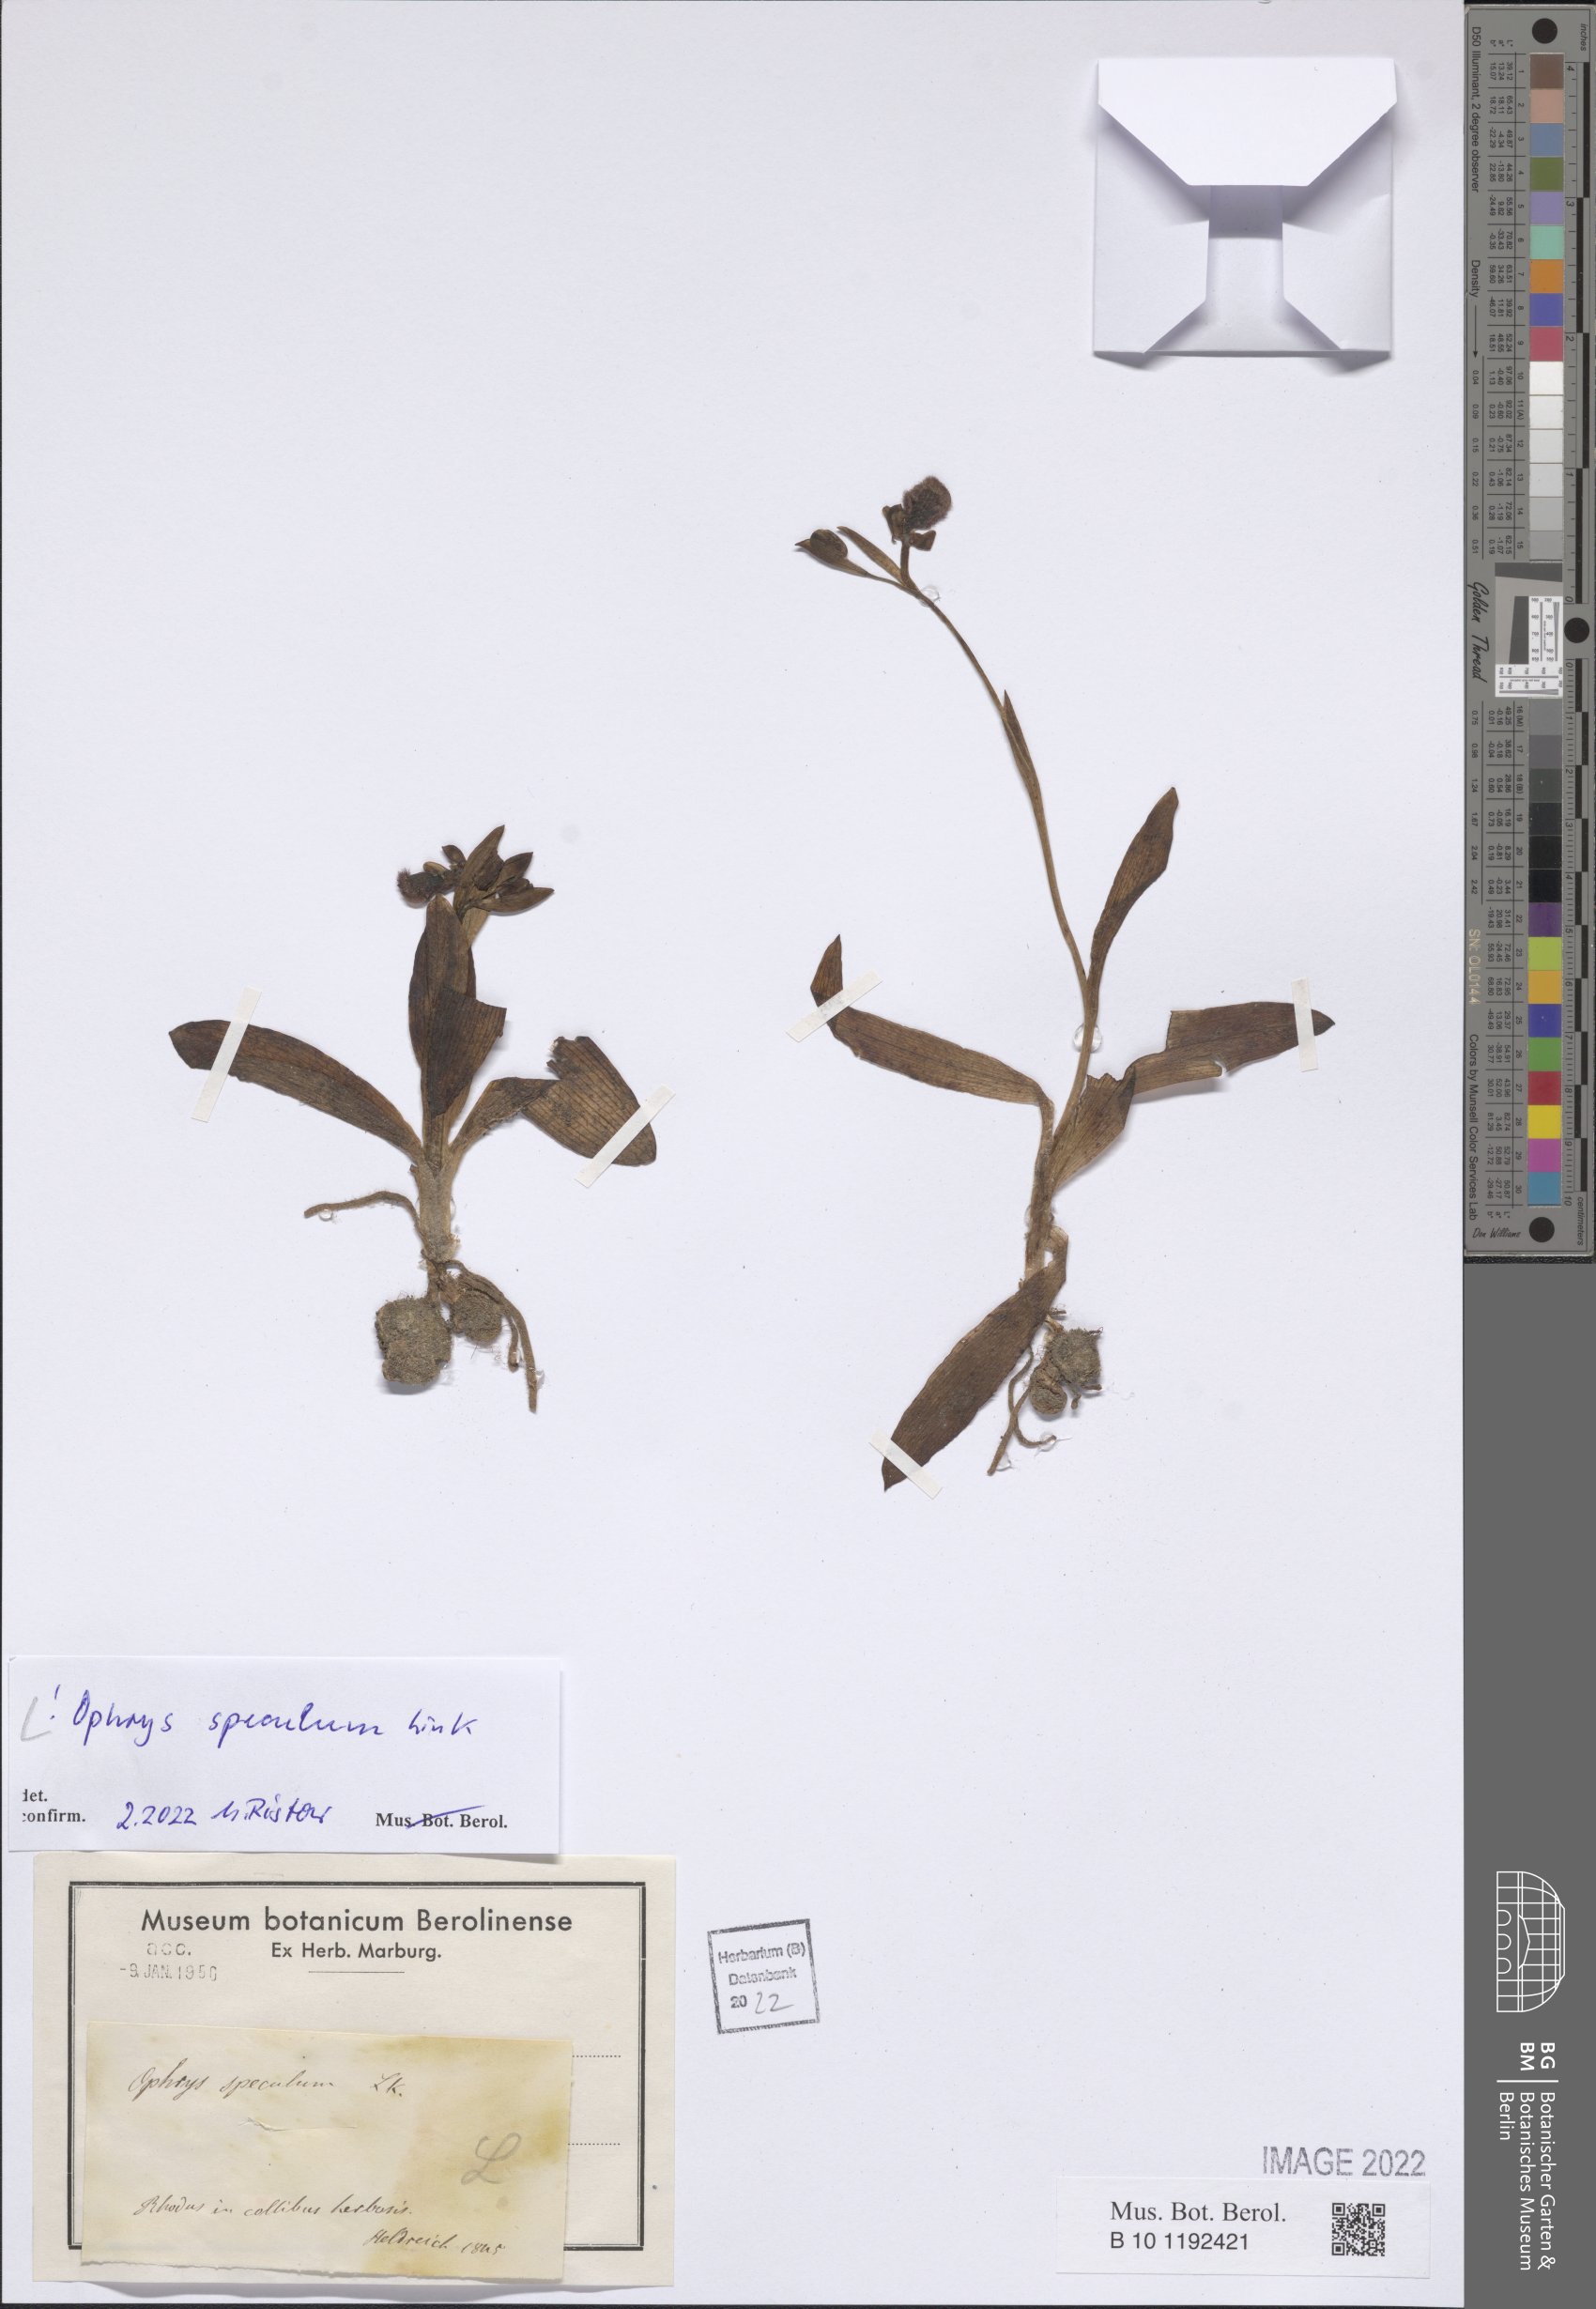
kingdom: Plantae
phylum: Tracheophyta
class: Liliopsida
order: Asparagales
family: Orchidaceae
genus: Ophrys
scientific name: Ophrys speculum
